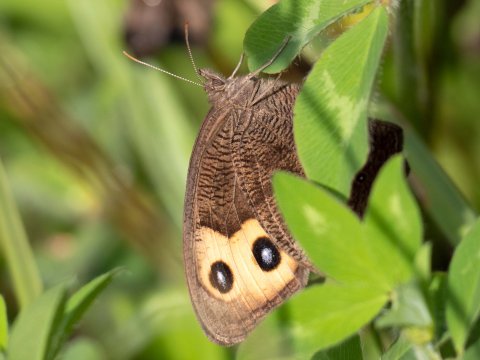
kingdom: Animalia
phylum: Arthropoda
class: Insecta
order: Lepidoptera
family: Nymphalidae
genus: Cercyonis
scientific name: Cercyonis pegala
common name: Common Wood-Nymph
